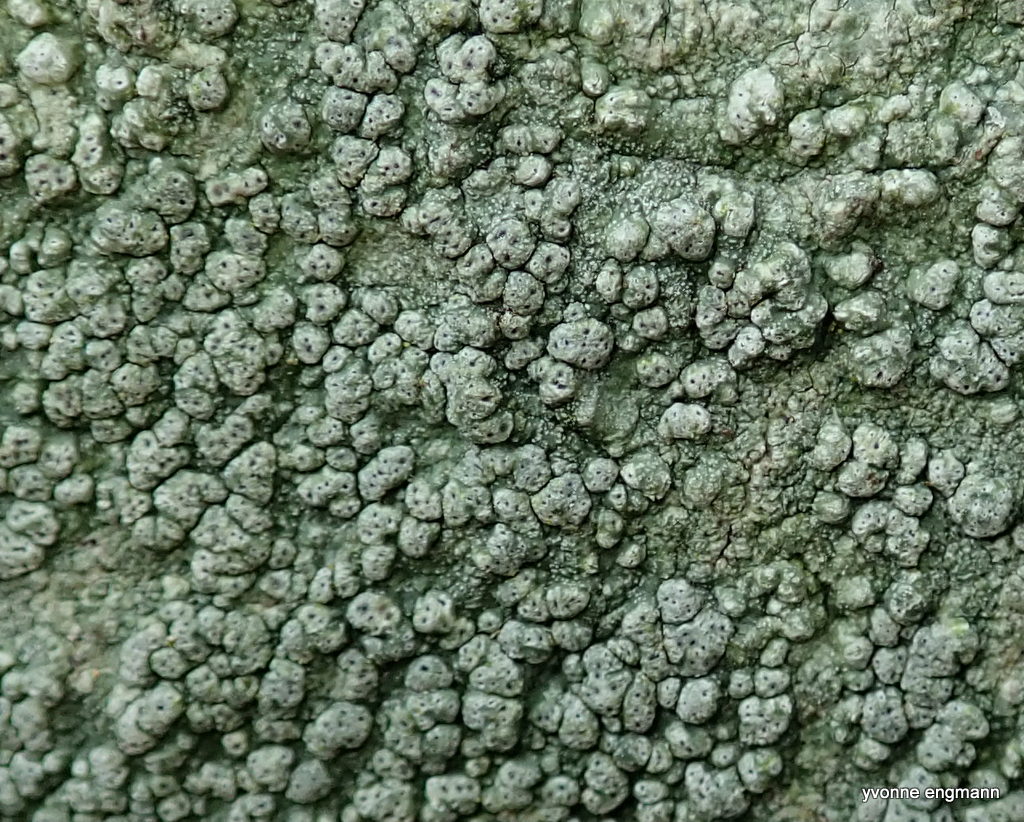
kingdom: Fungi
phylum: Ascomycota
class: Lecanoromycetes
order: Pertusariales
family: Pertusariaceae
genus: Pertusaria
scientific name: Pertusaria pertusa
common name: almindelig prikvortelav
